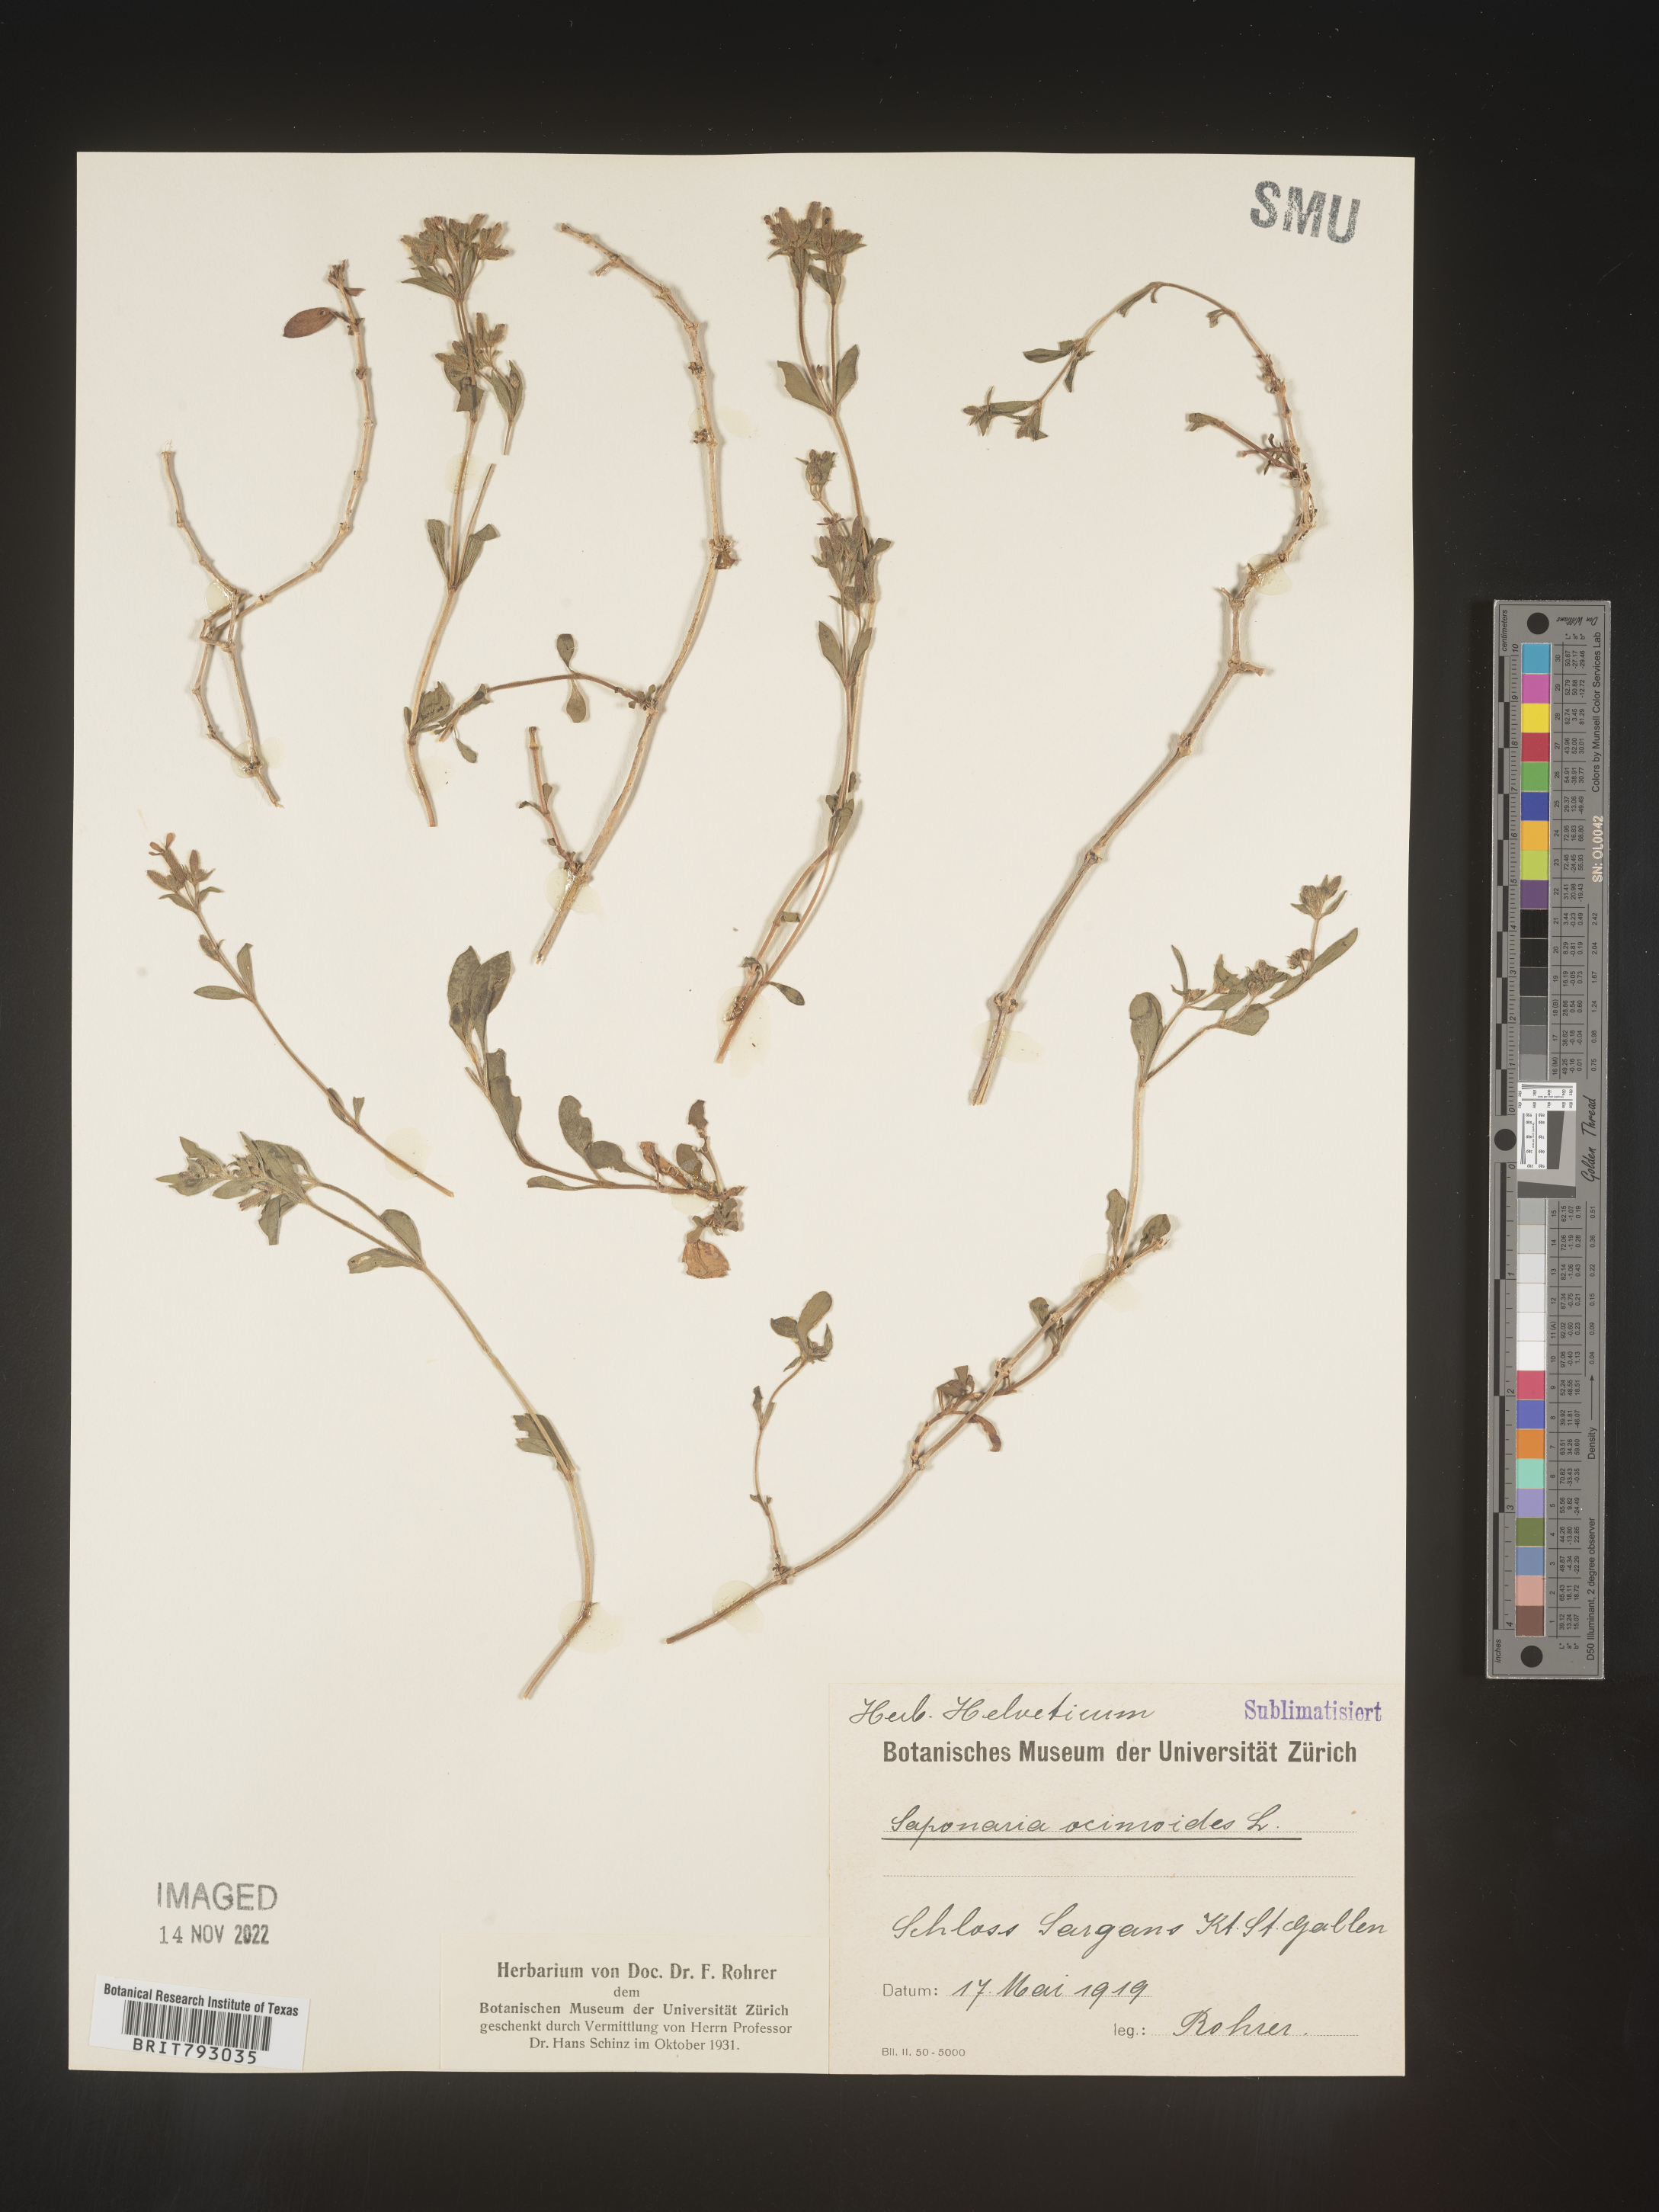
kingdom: Plantae
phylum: Tracheophyta
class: Magnoliopsida
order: Caryophyllales
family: Caryophyllaceae
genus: Saponaria
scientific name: Saponaria
